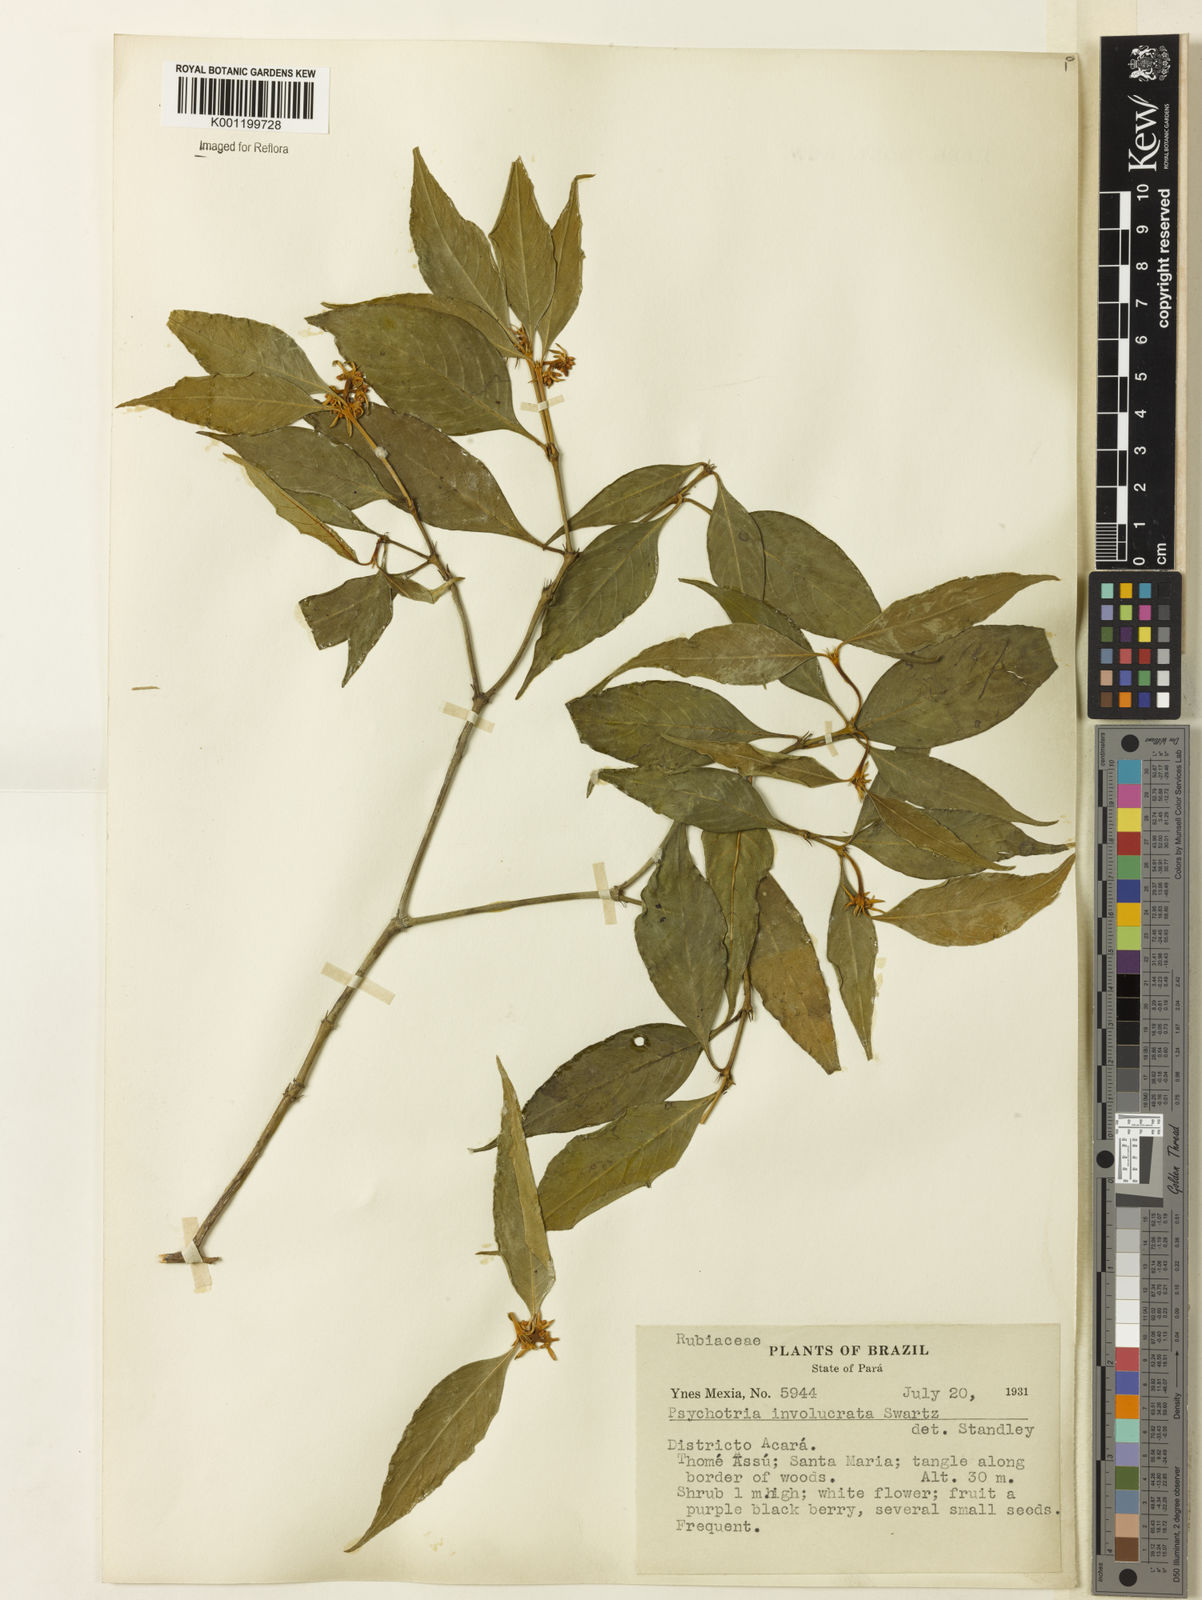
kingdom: Plantae
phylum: Tracheophyta
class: Magnoliopsida
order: Gentianales
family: Rubiaceae
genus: Psychotria
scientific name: Psychotria
